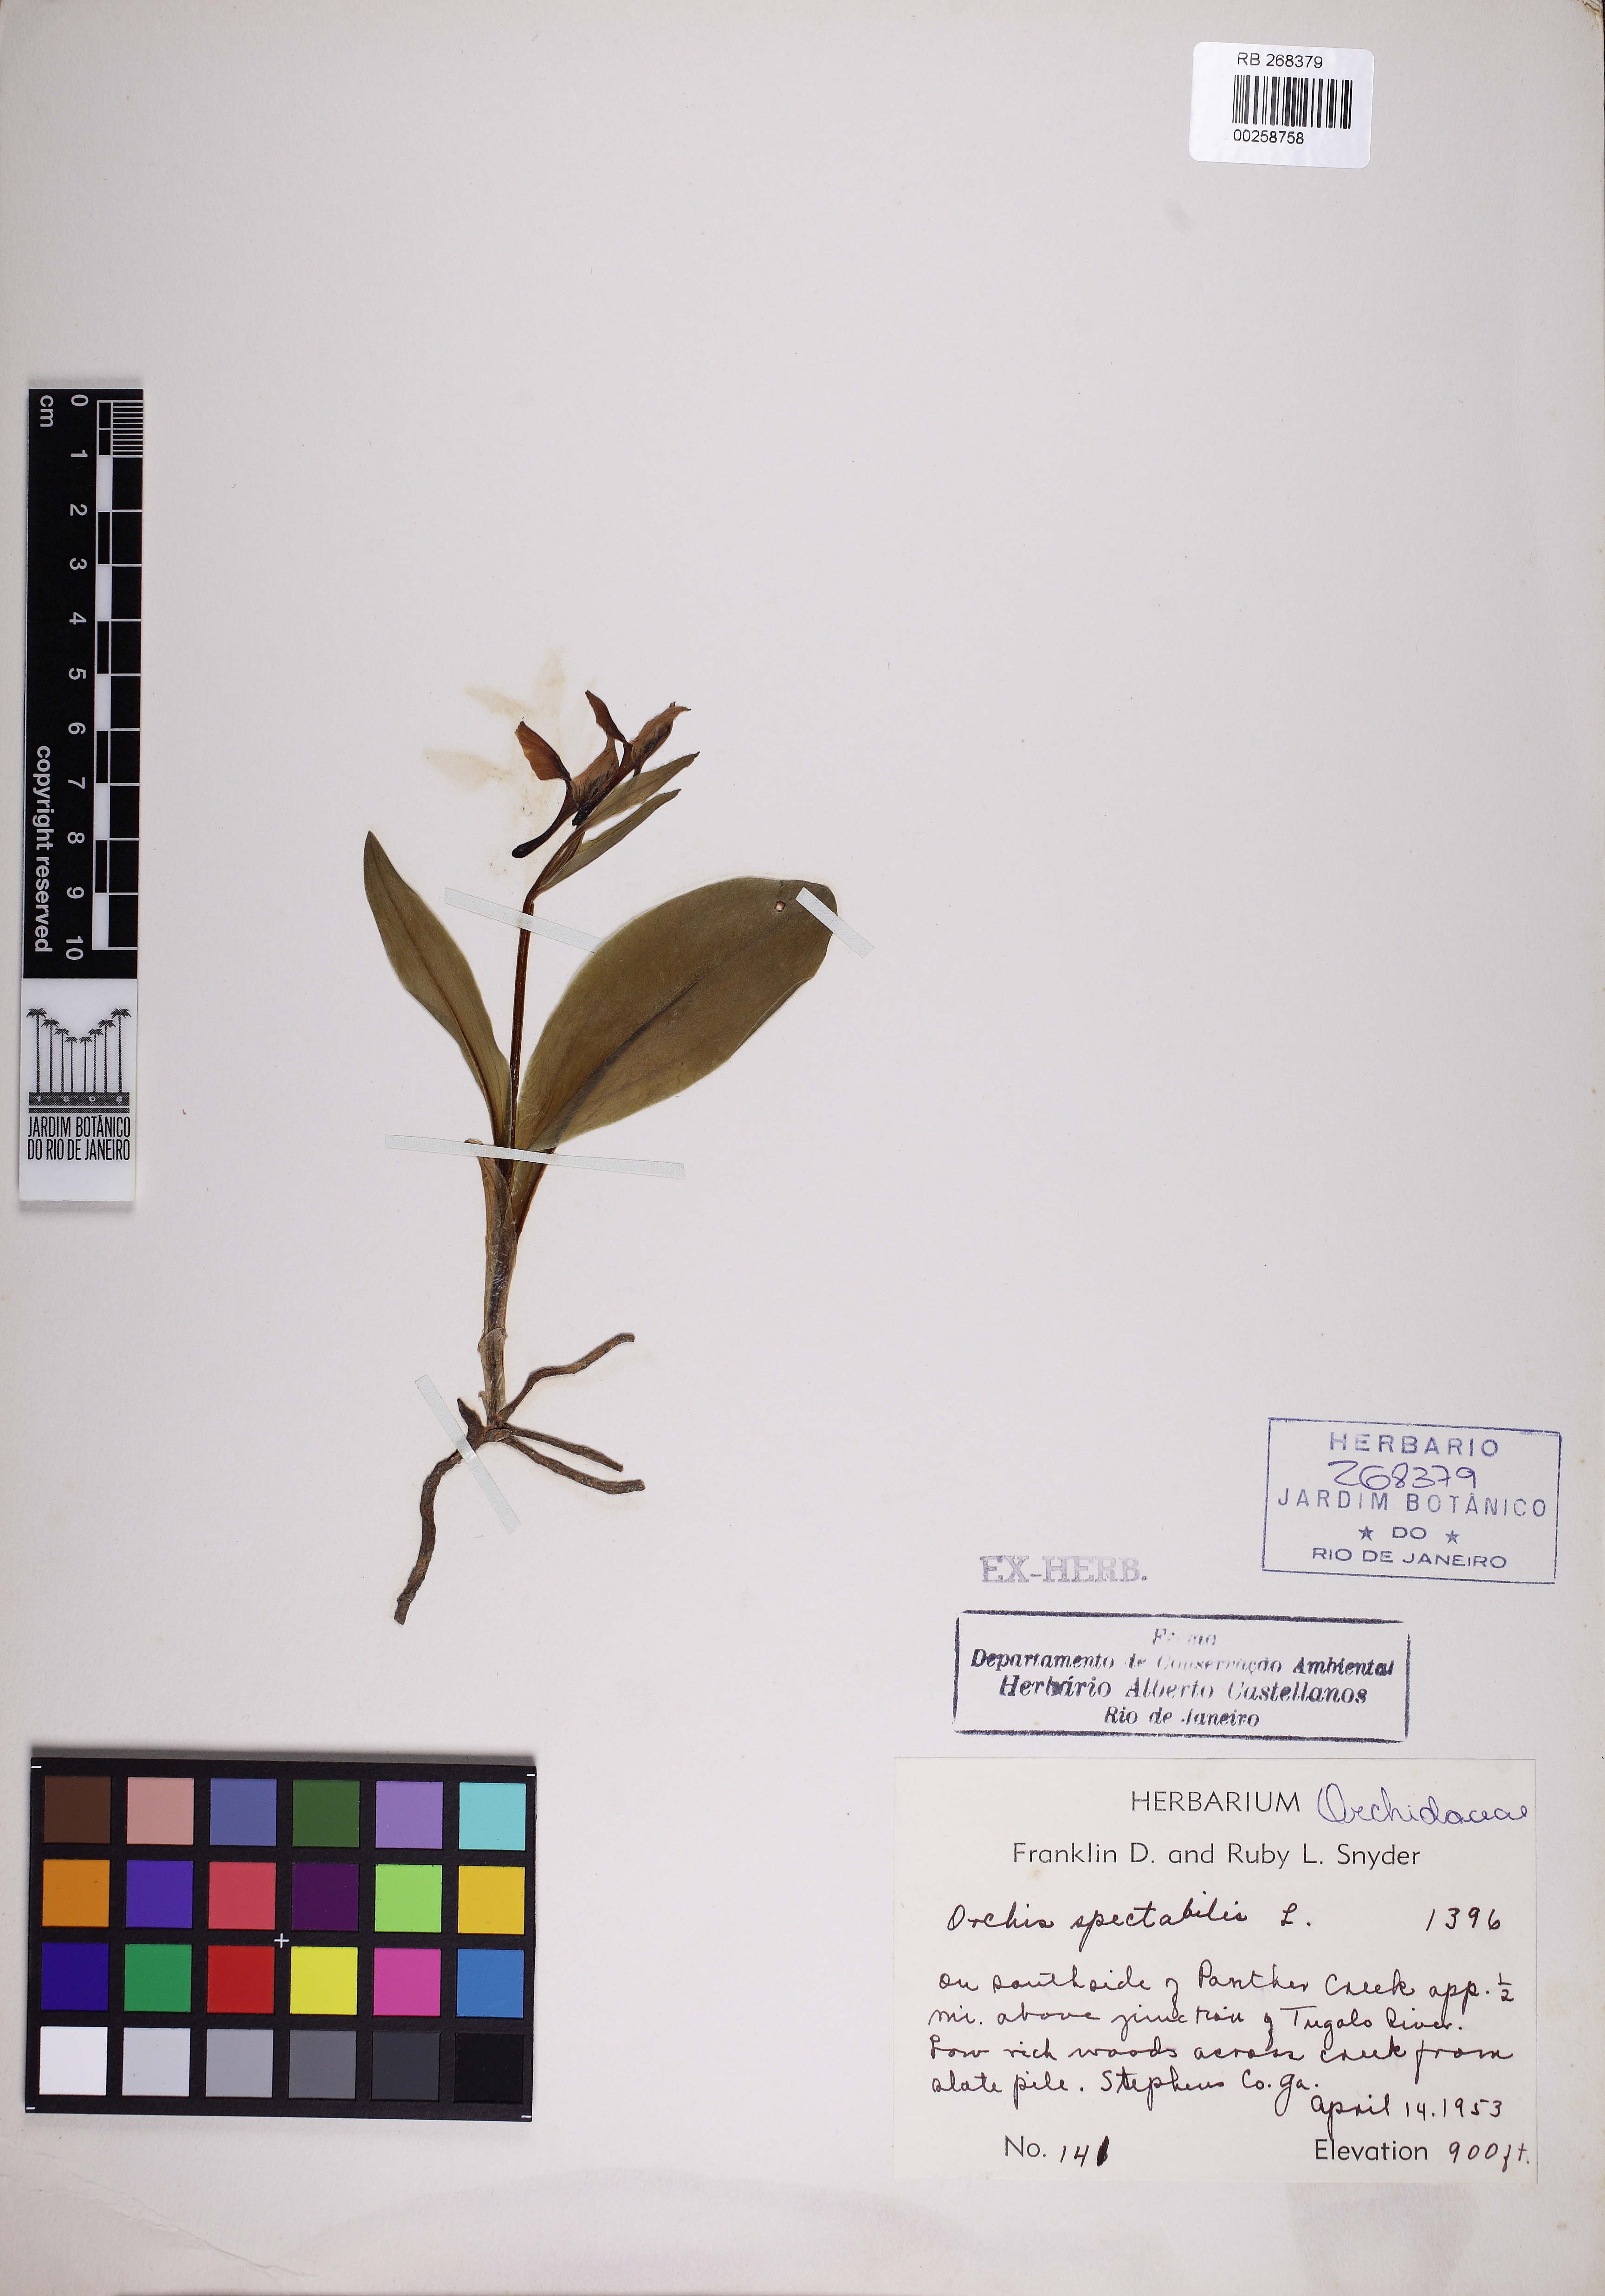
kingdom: Plantae
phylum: Tracheophyta
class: Liliopsida
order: Asparagales
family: Orchidaceae
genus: Galearis
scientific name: Galearis spectabilis
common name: Purple-hooded orchis
